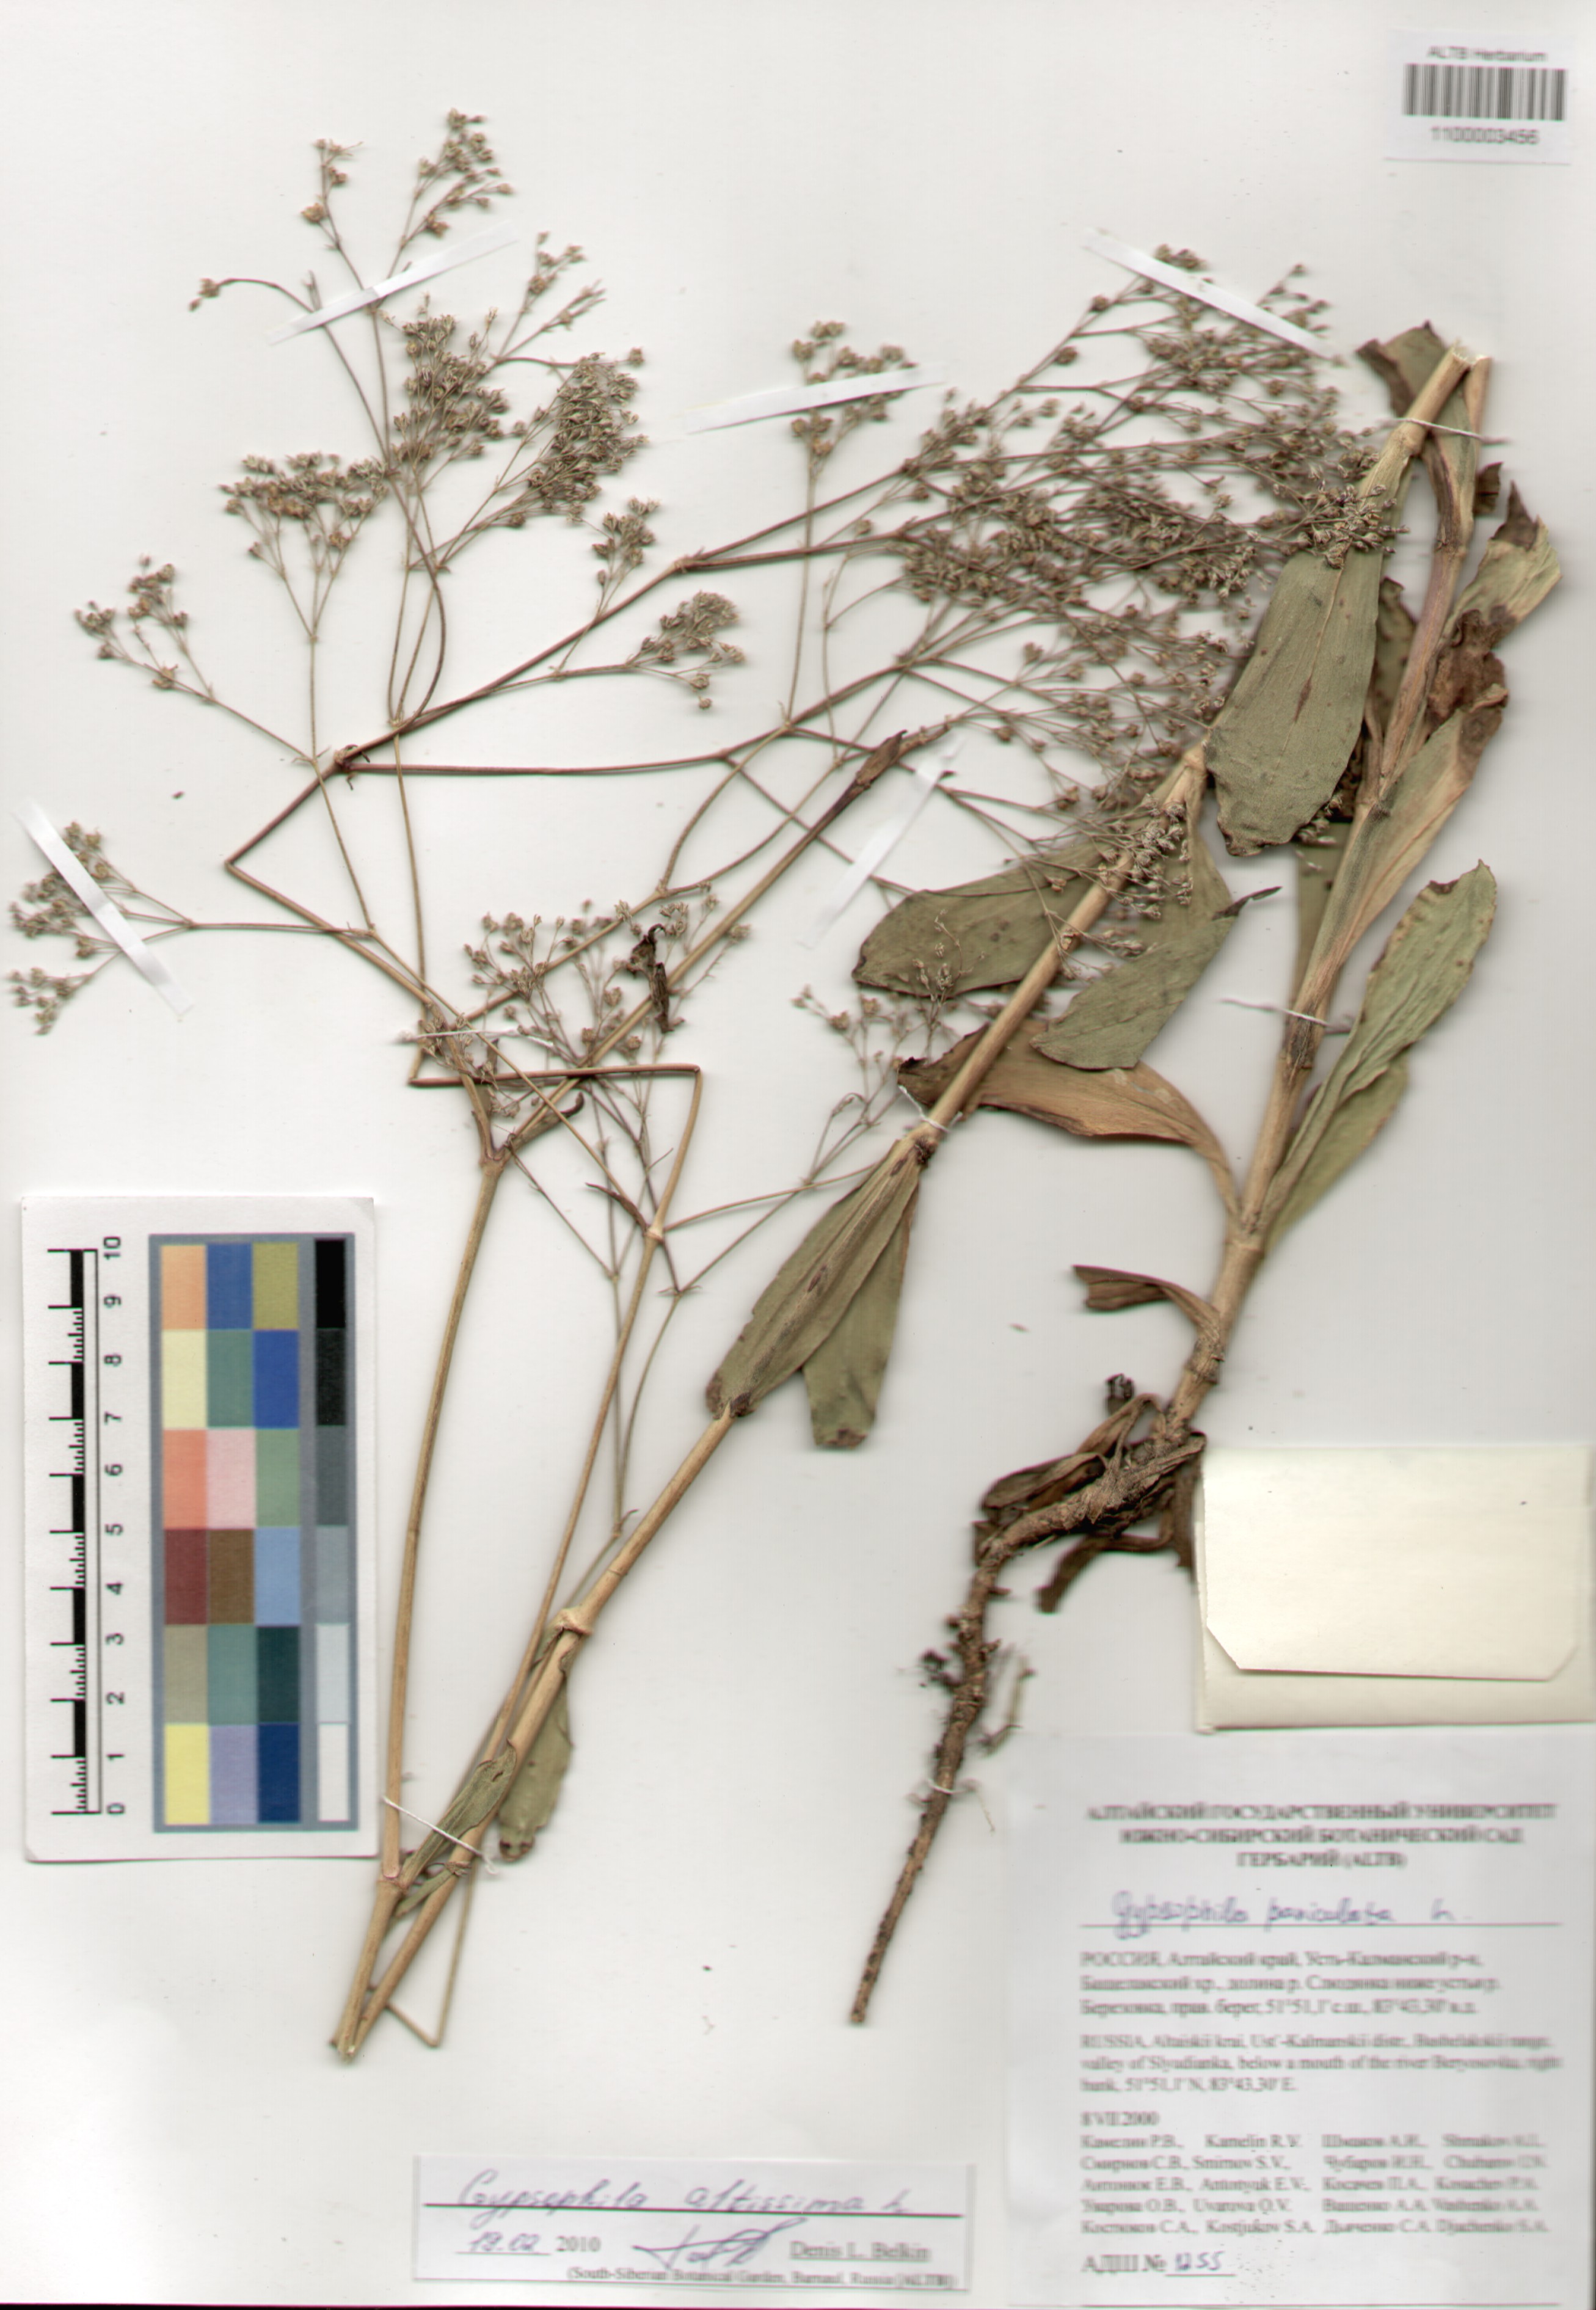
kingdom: Plantae
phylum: Tracheophyta
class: Magnoliopsida
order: Caryophyllales
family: Caryophyllaceae
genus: Gypsophila
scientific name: Gypsophila altissima
